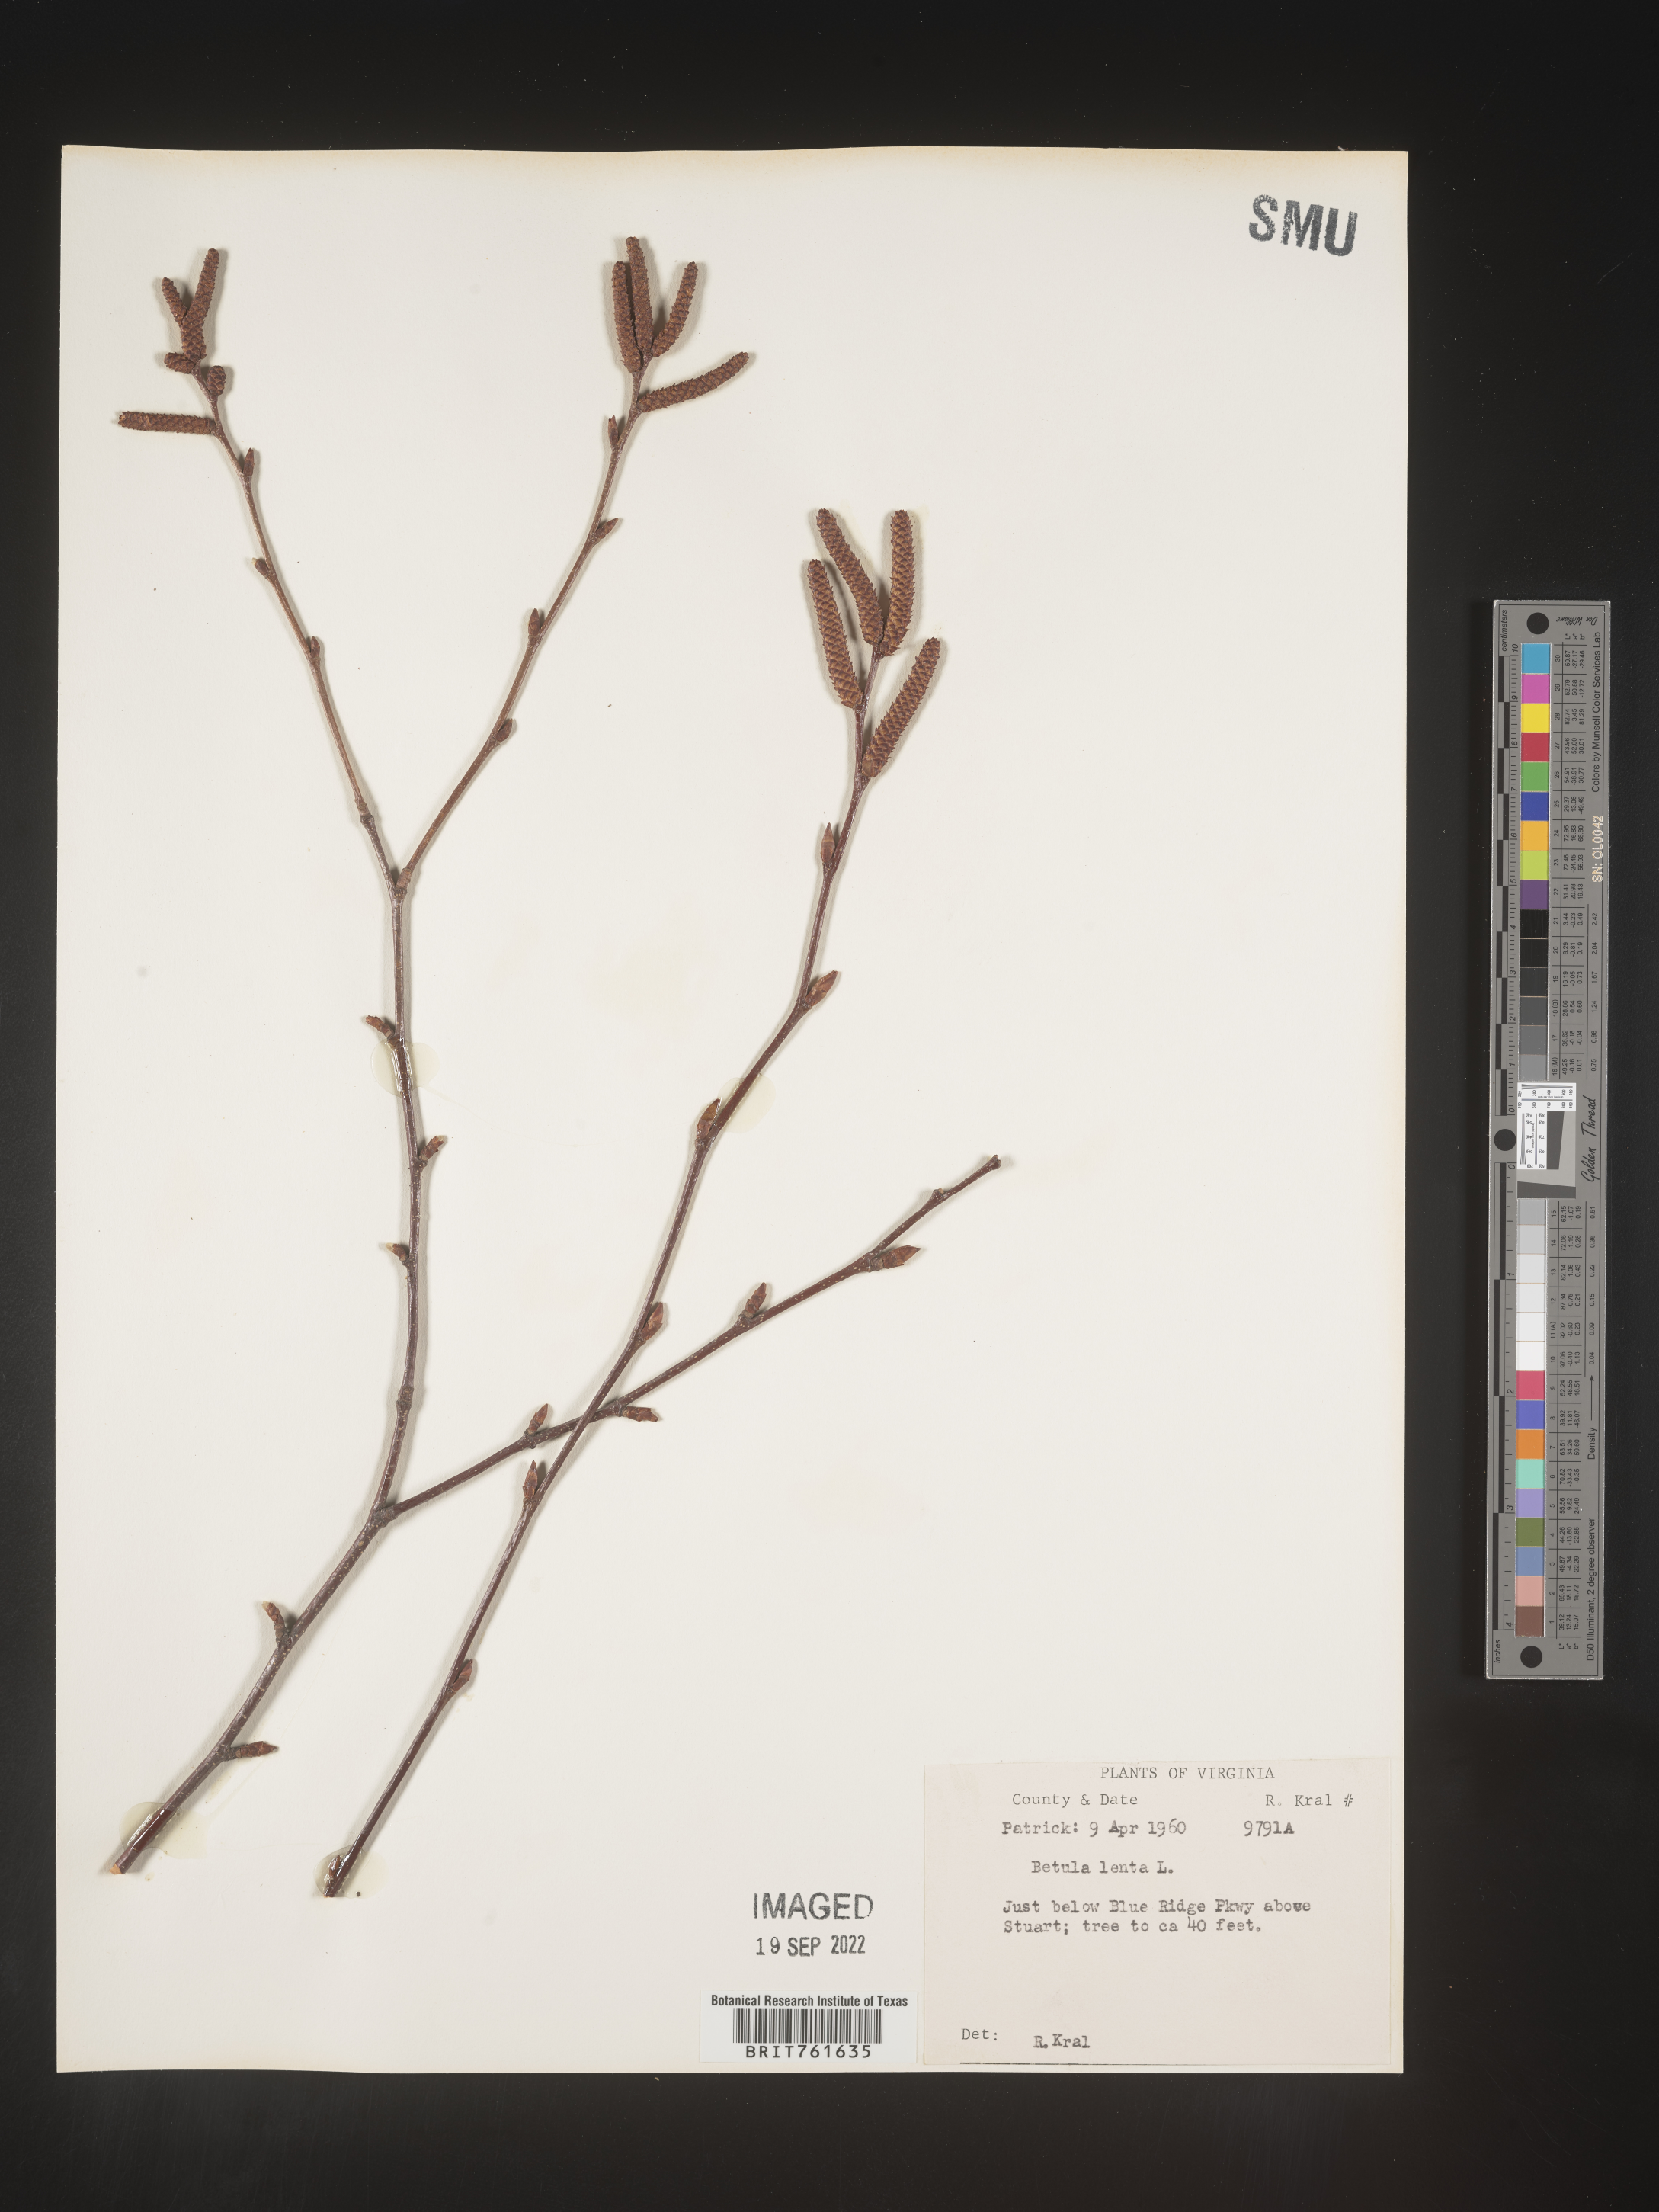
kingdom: Plantae
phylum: Tracheophyta
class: Magnoliopsida
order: Fagales
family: Betulaceae
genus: Betula
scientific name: Betula lenta
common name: Black birch
